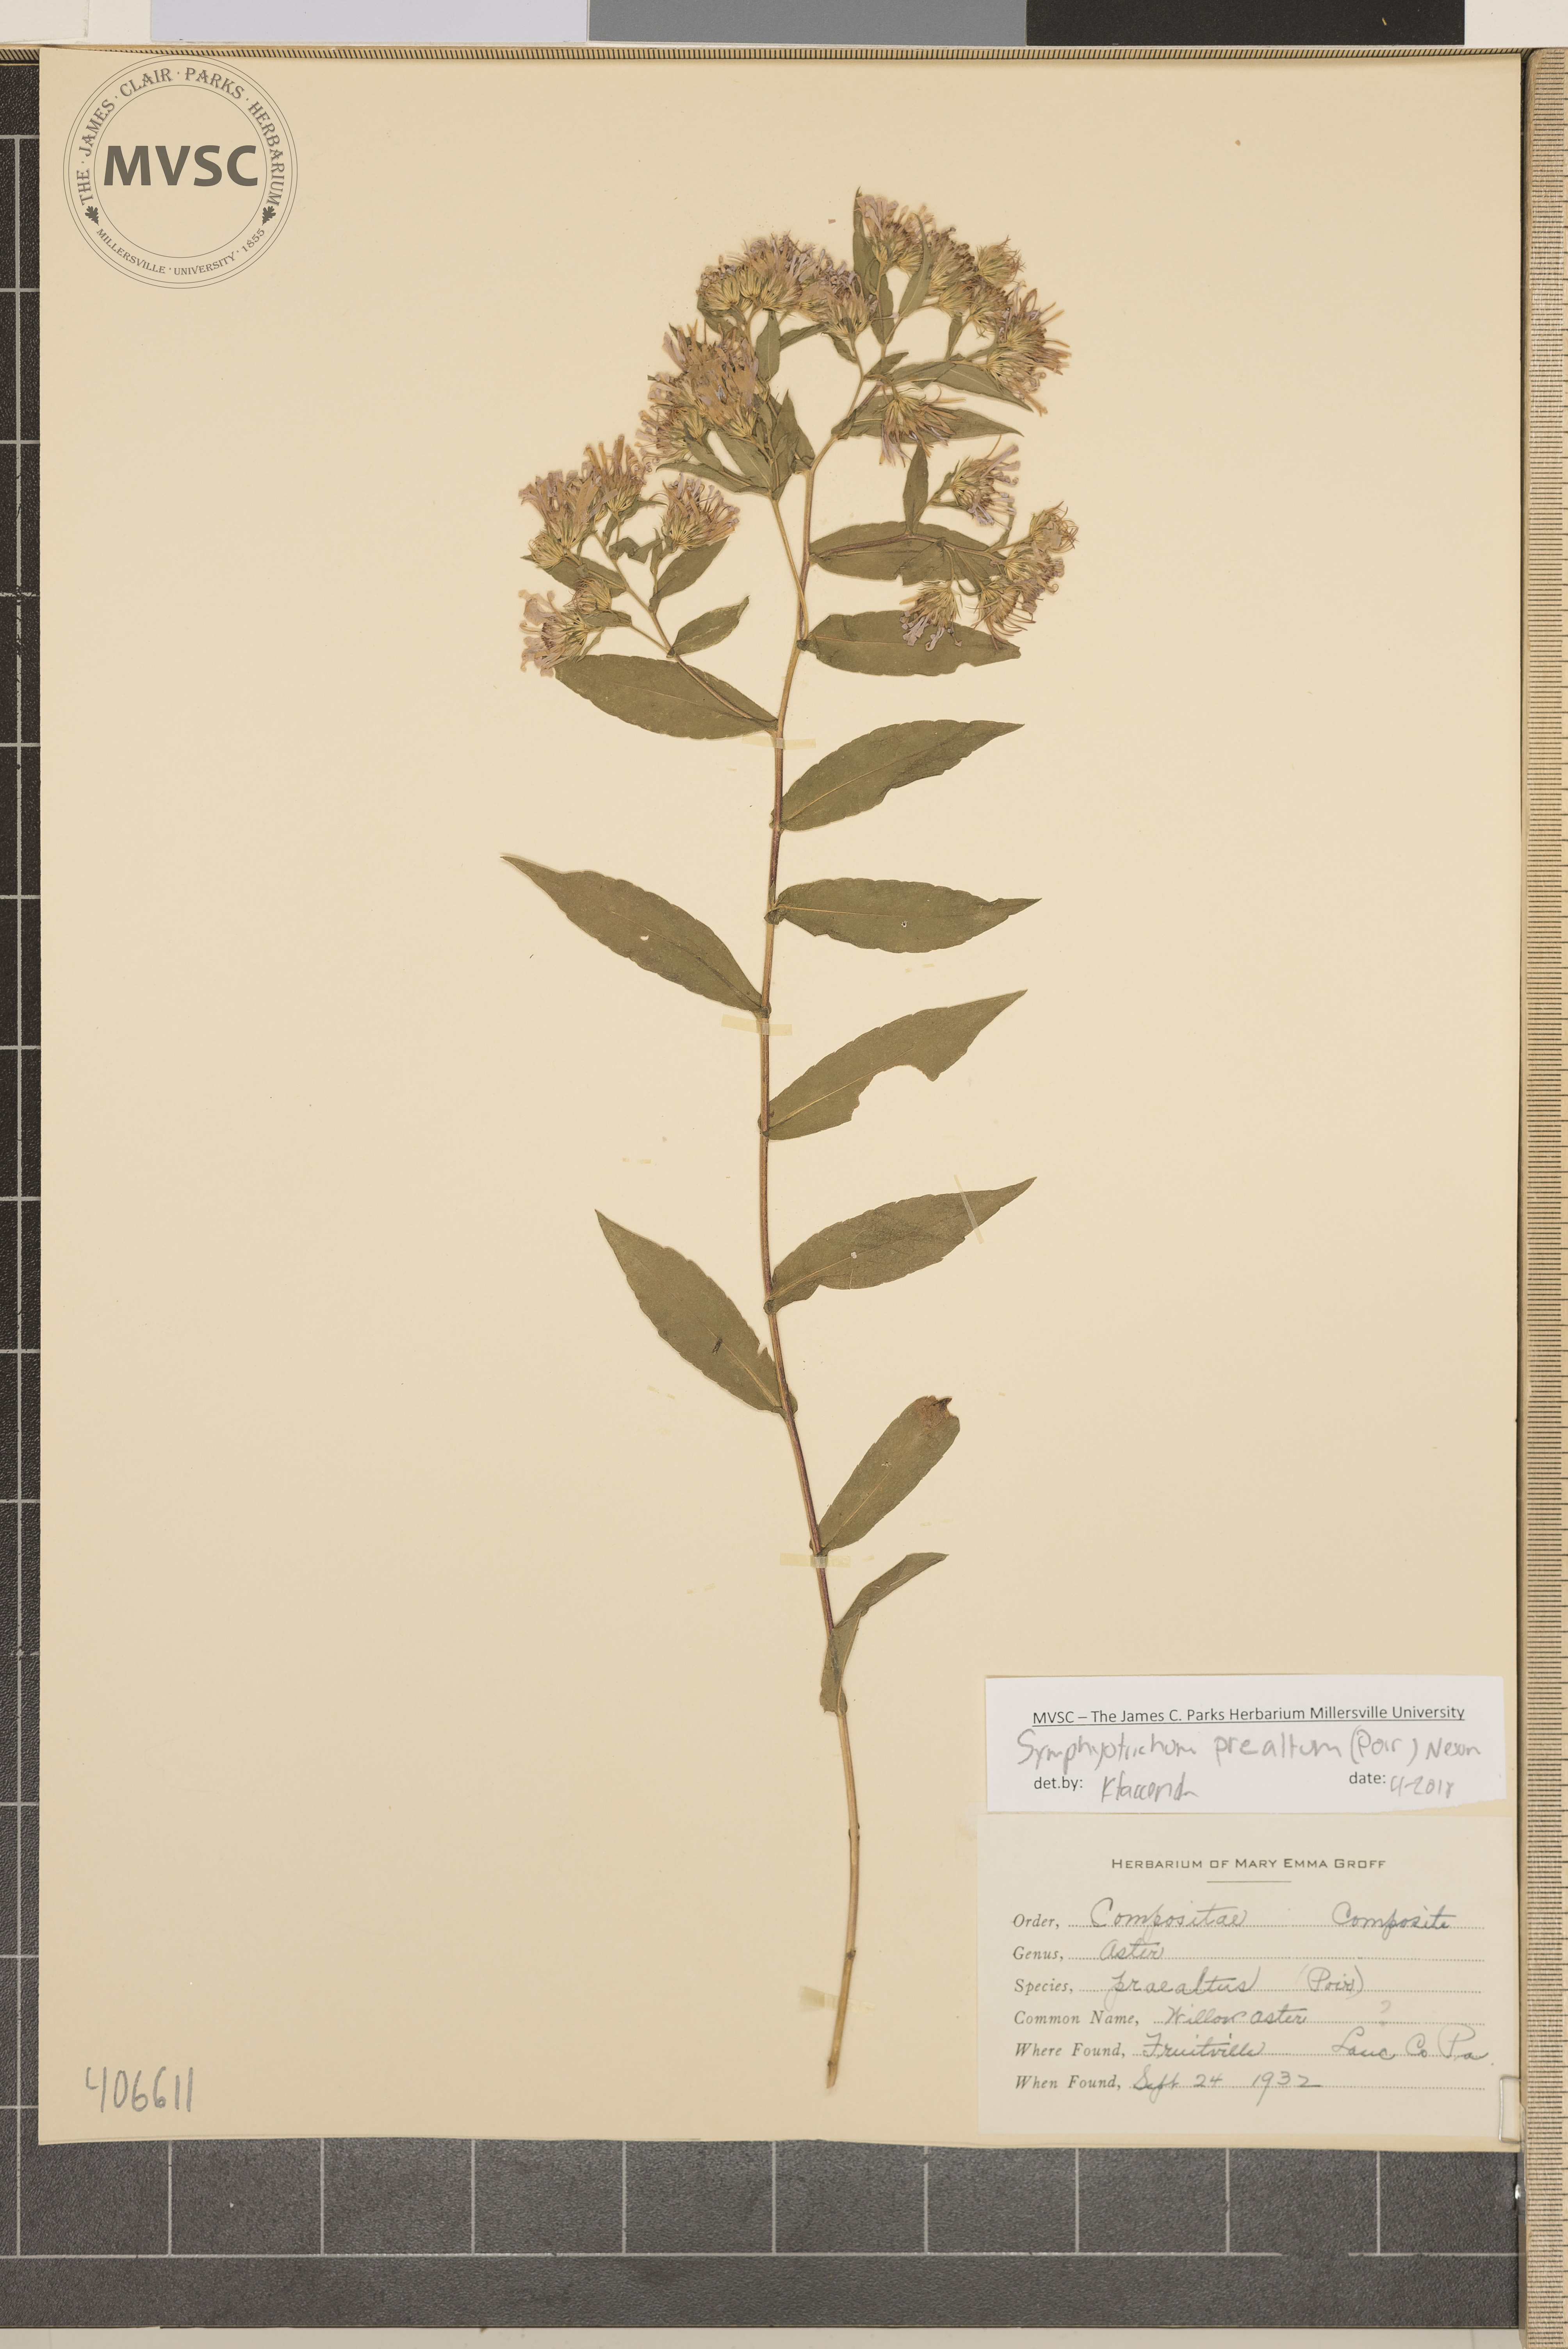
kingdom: Plantae
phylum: Tracheophyta
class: Magnoliopsida
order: Asterales
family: Asteraceae
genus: Symphyotrichum
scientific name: Symphyotrichum praealtum
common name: Willow Aster
